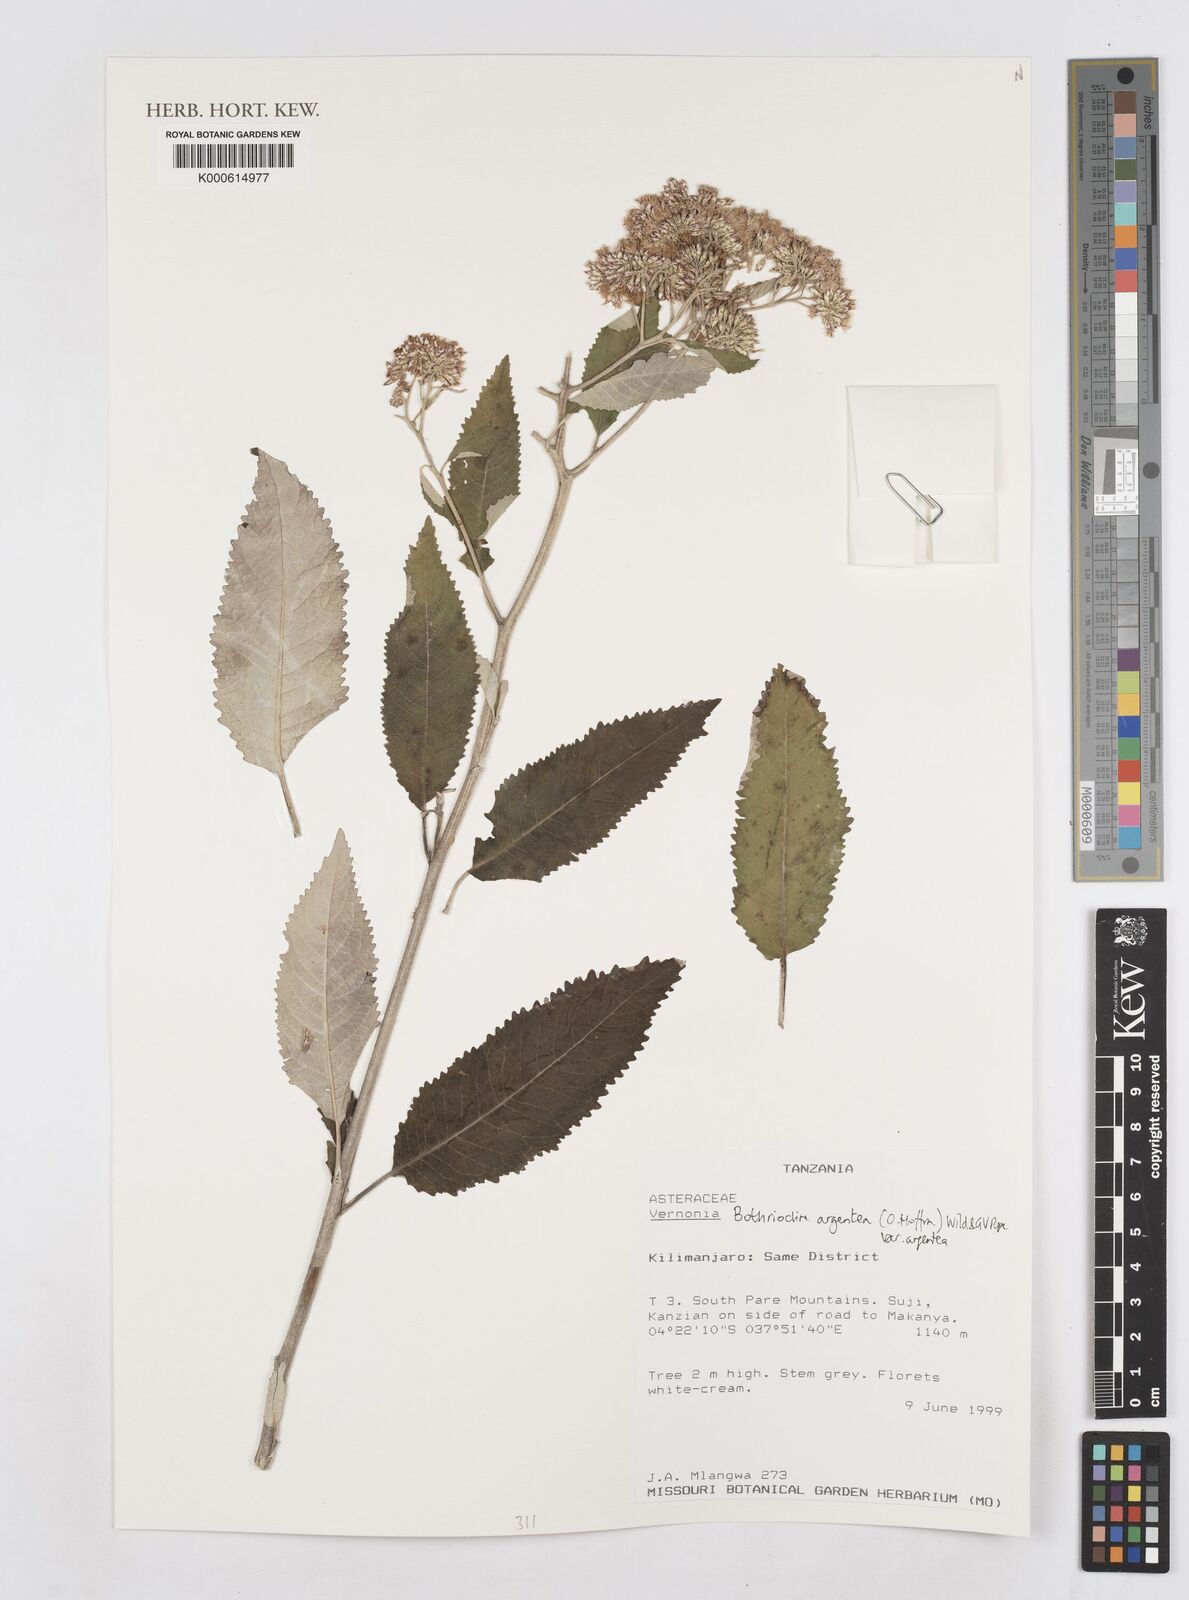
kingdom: Plantae
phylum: Tracheophyta
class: Magnoliopsida
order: Asterales
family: Asteraceae
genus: Bothriocline
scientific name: Bothriocline argentea
